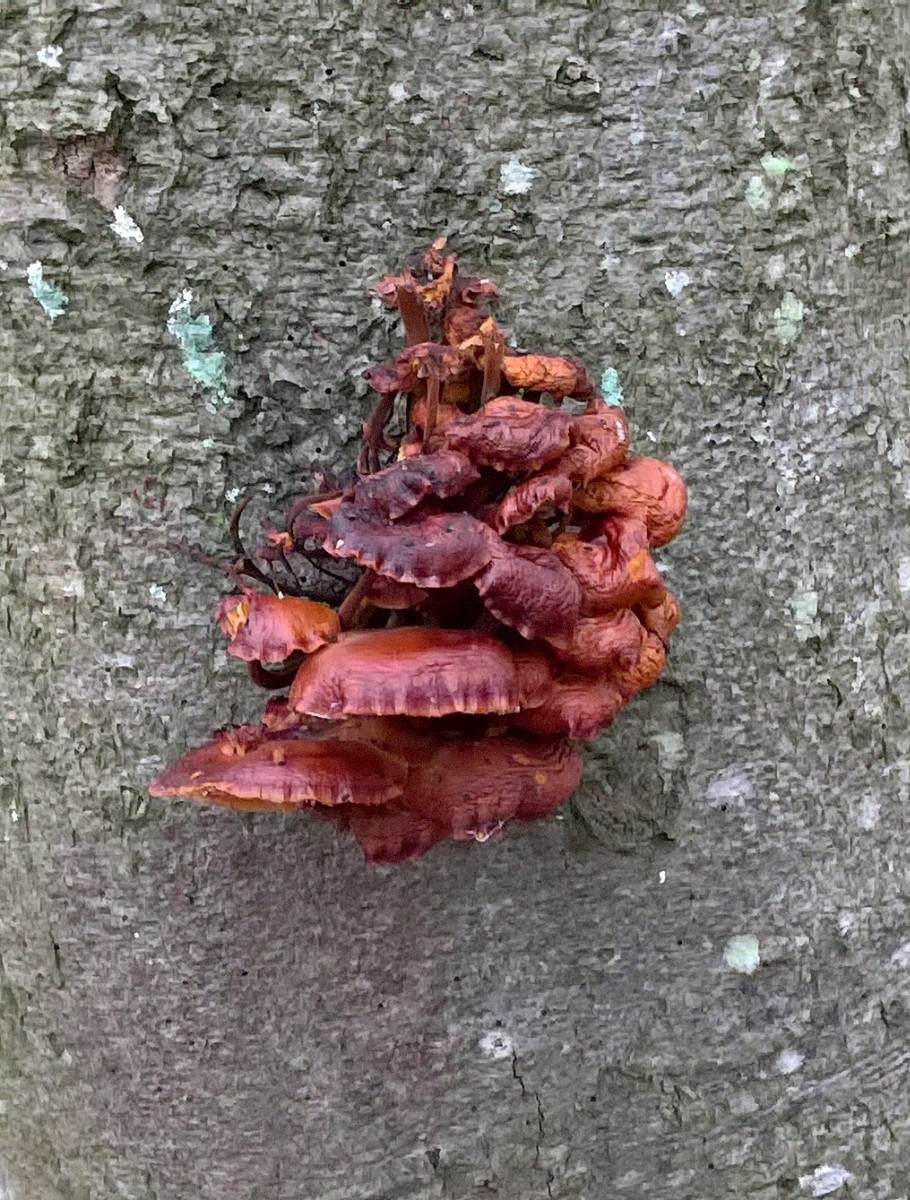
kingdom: Fungi
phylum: Basidiomycota
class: Agaricomycetes
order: Agaricales
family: Physalacriaceae
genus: Flammulina
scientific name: Flammulina velutipes
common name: gul fløjlsfod
